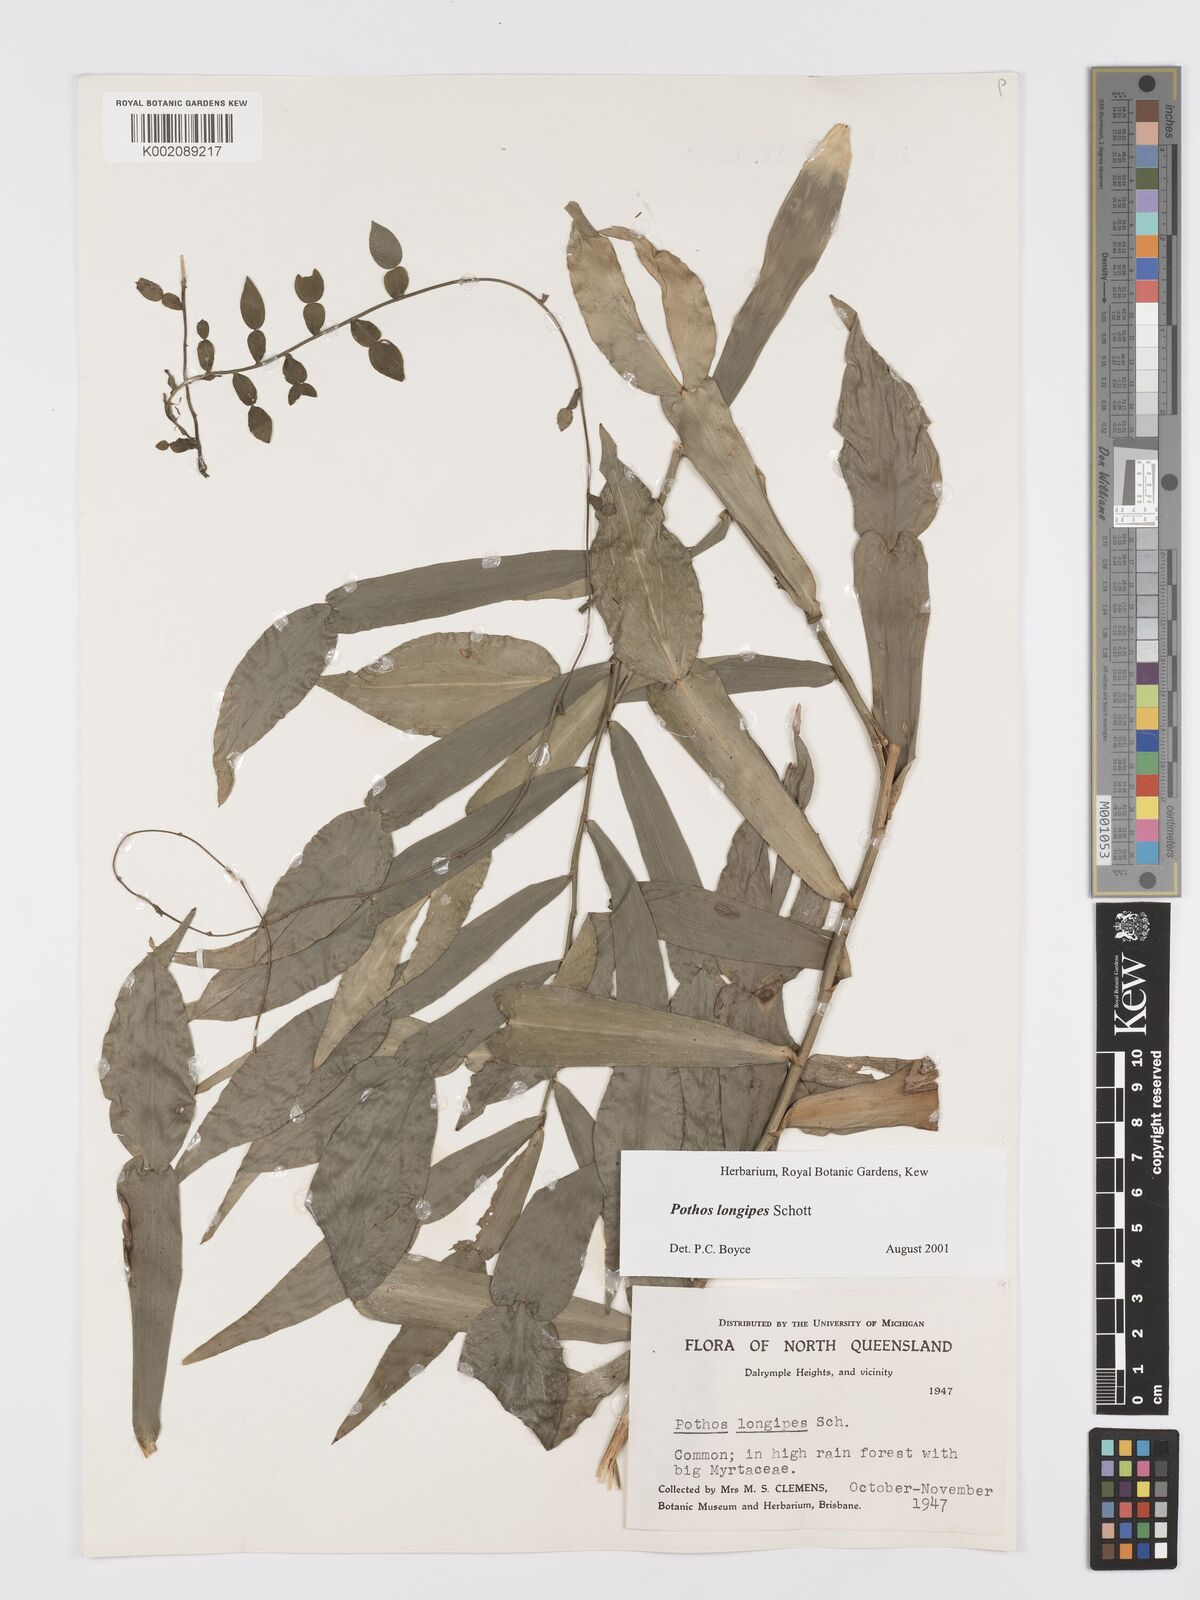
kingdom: Plantae
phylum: Tracheophyta
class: Liliopsida
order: Alismatales
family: Araceae
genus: Pothos
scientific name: Pothos longipes
